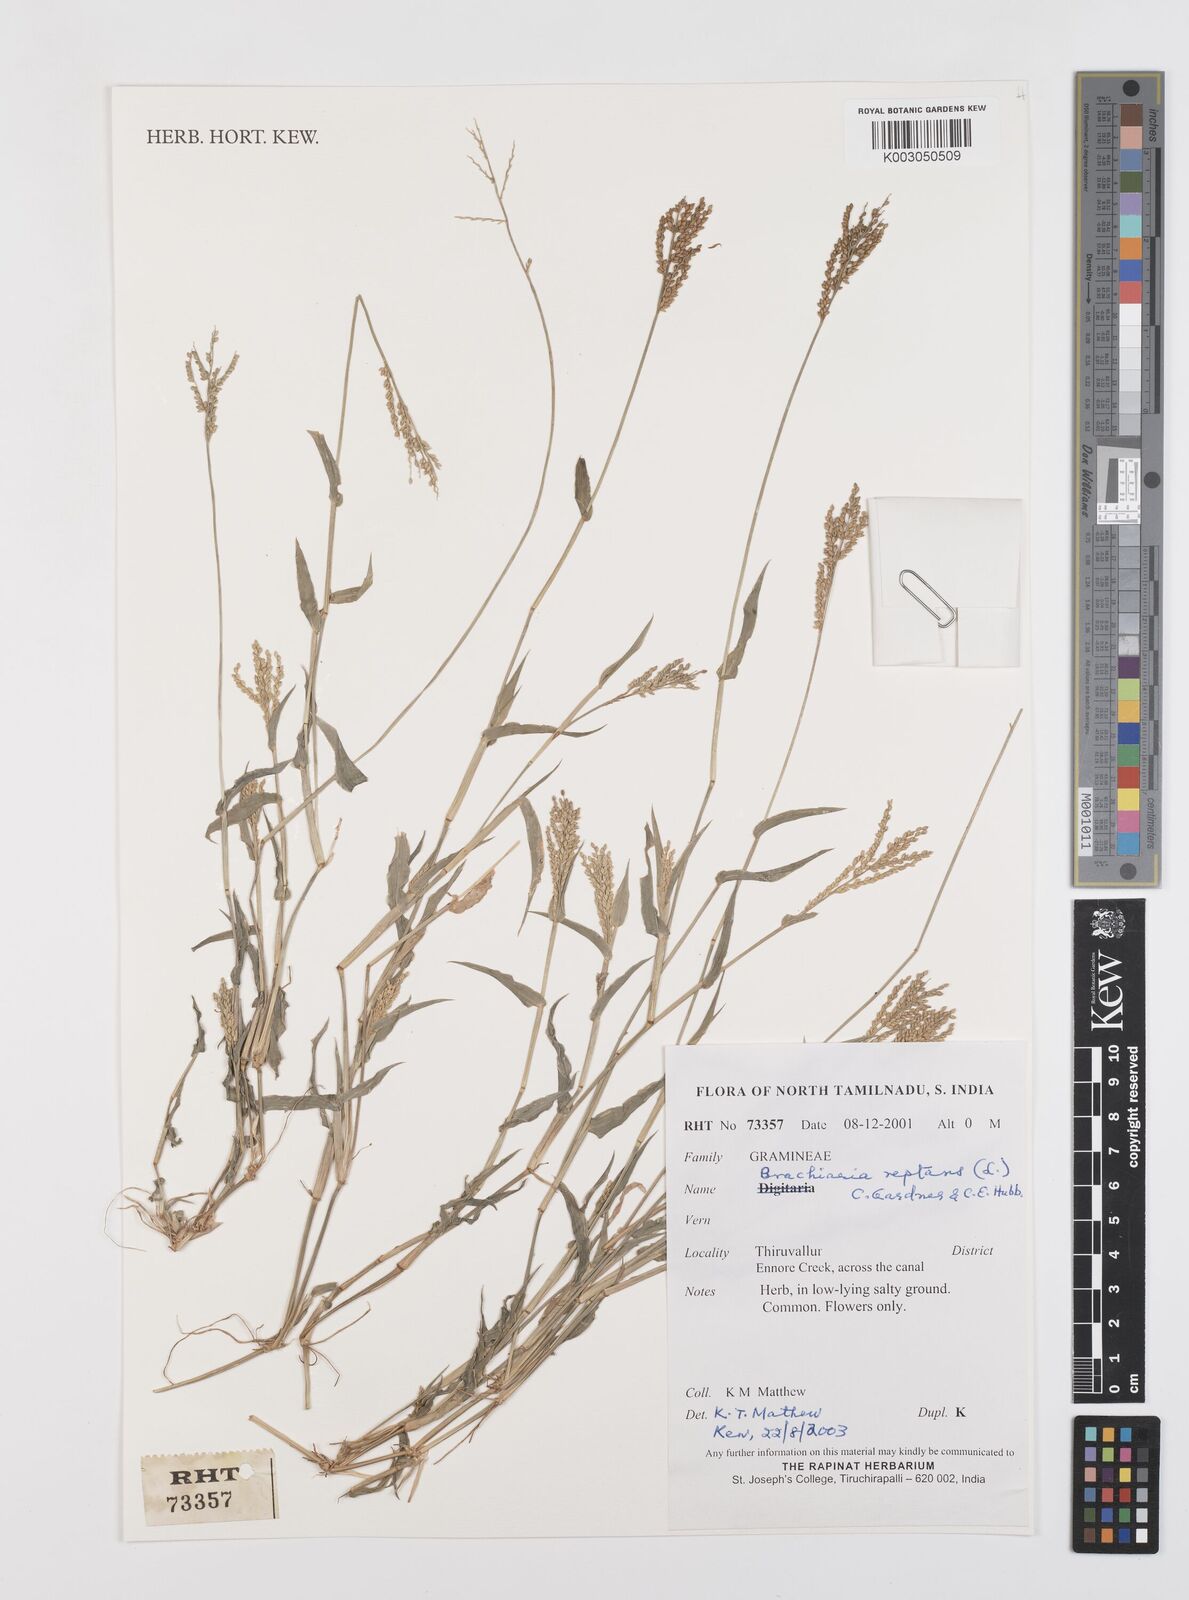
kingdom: Plantae
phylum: Tracheophyta
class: Liliopsida
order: Poales
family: Poaceae
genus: Urochloa
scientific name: Urochloa reptans
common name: Sprawling signalgrass
